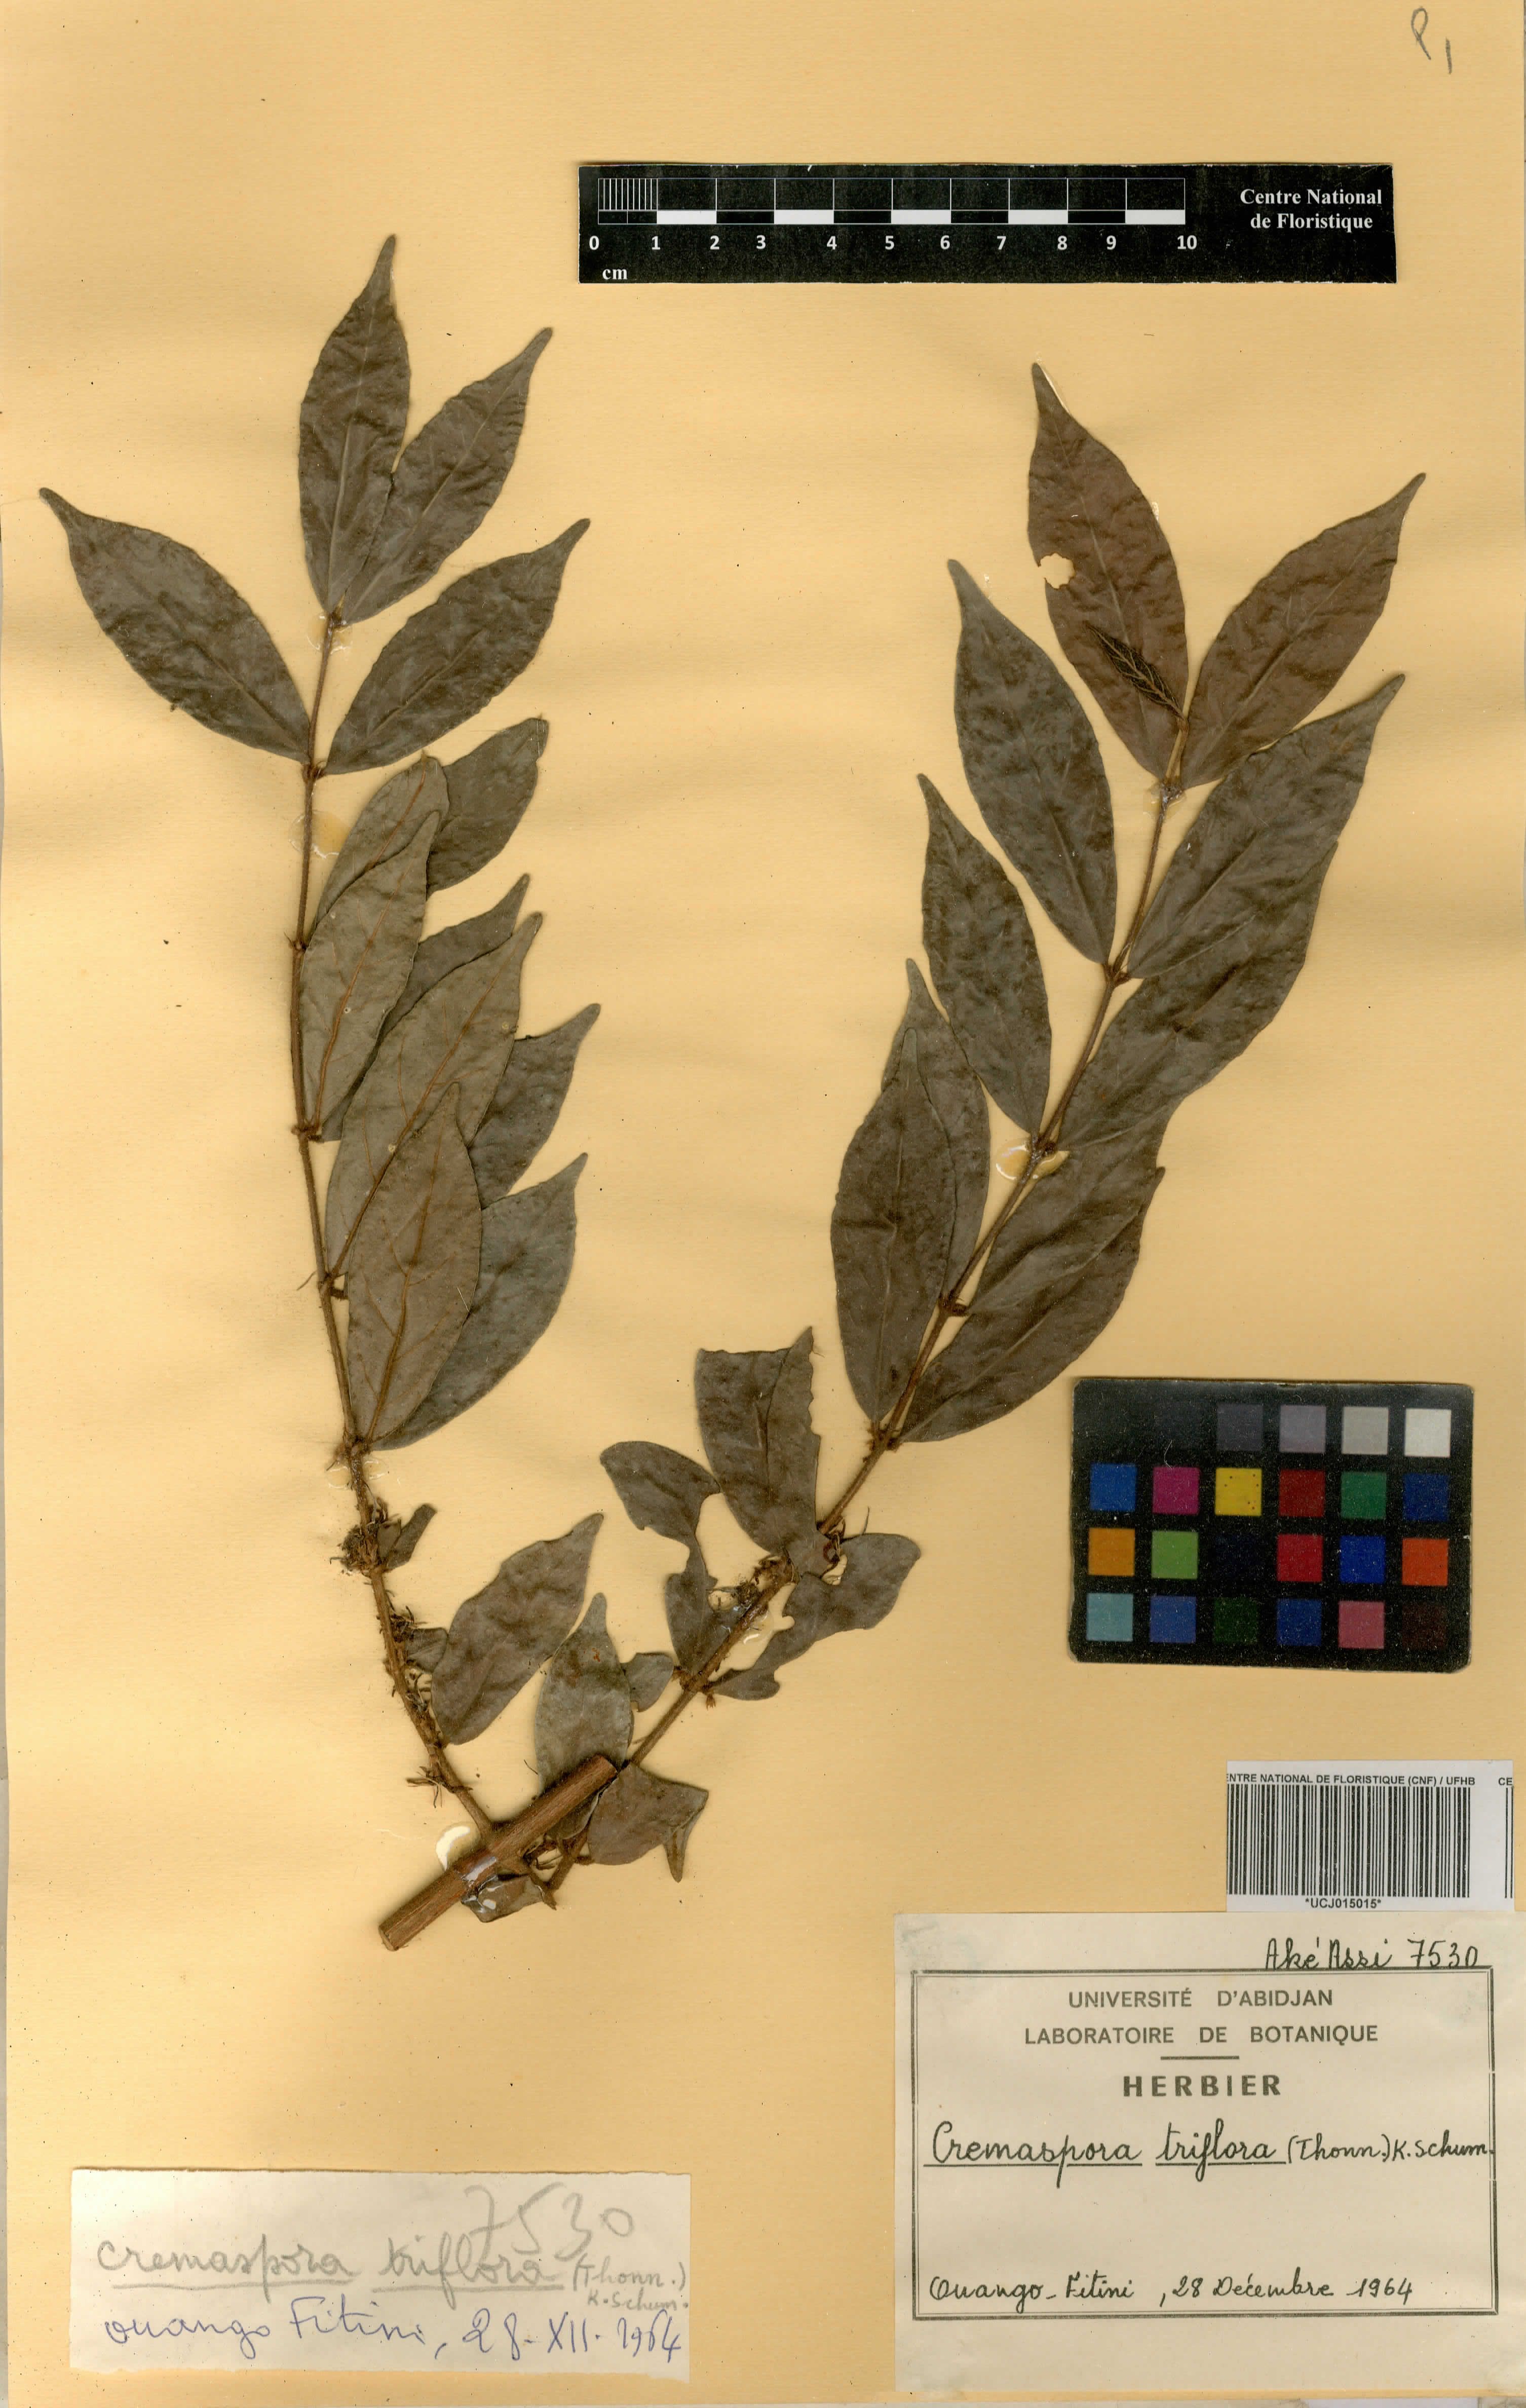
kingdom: Plantae
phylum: Tracheophyta
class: Magnoliopsida
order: Gentianales
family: Rubiaceae
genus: Cremaspora
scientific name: Cremaspora triflora
